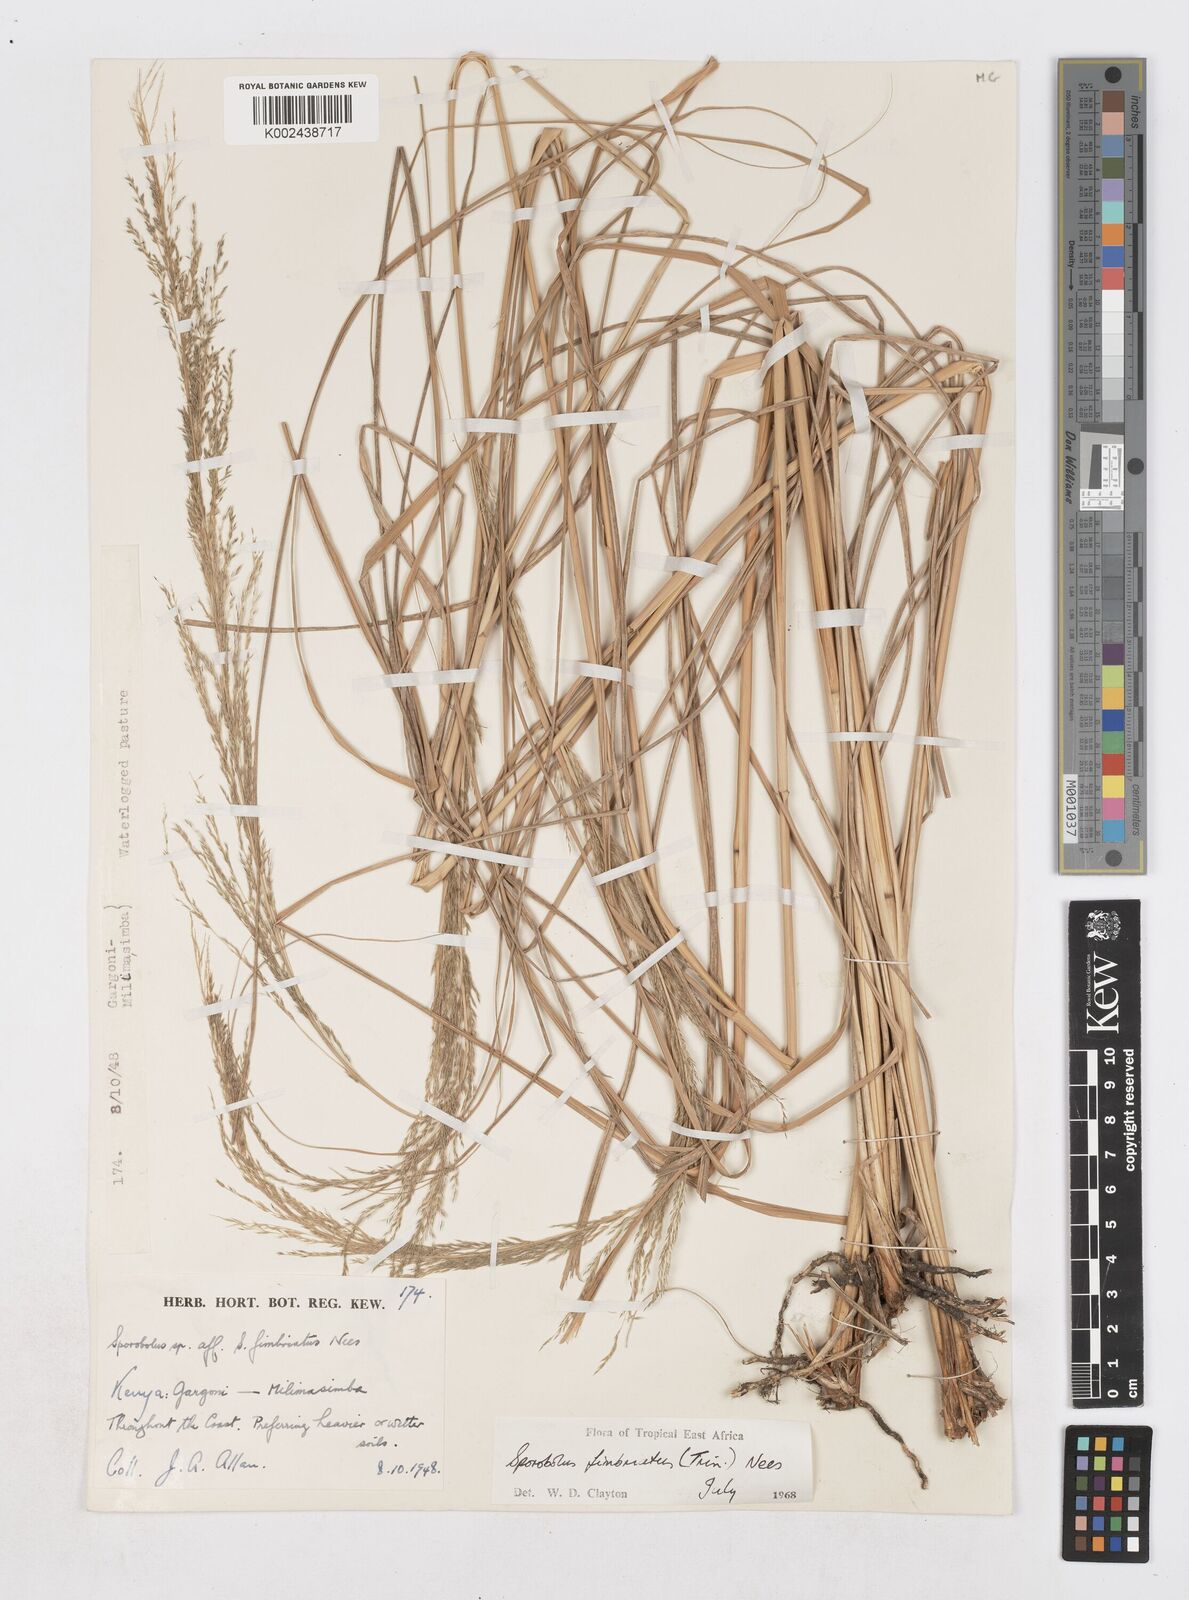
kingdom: Plantae
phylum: Tracheophyta
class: Liliopsida
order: Poales
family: Poaceae
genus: Sporobolus
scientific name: Sporobolus fimbriatus
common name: Fringed dropseed
